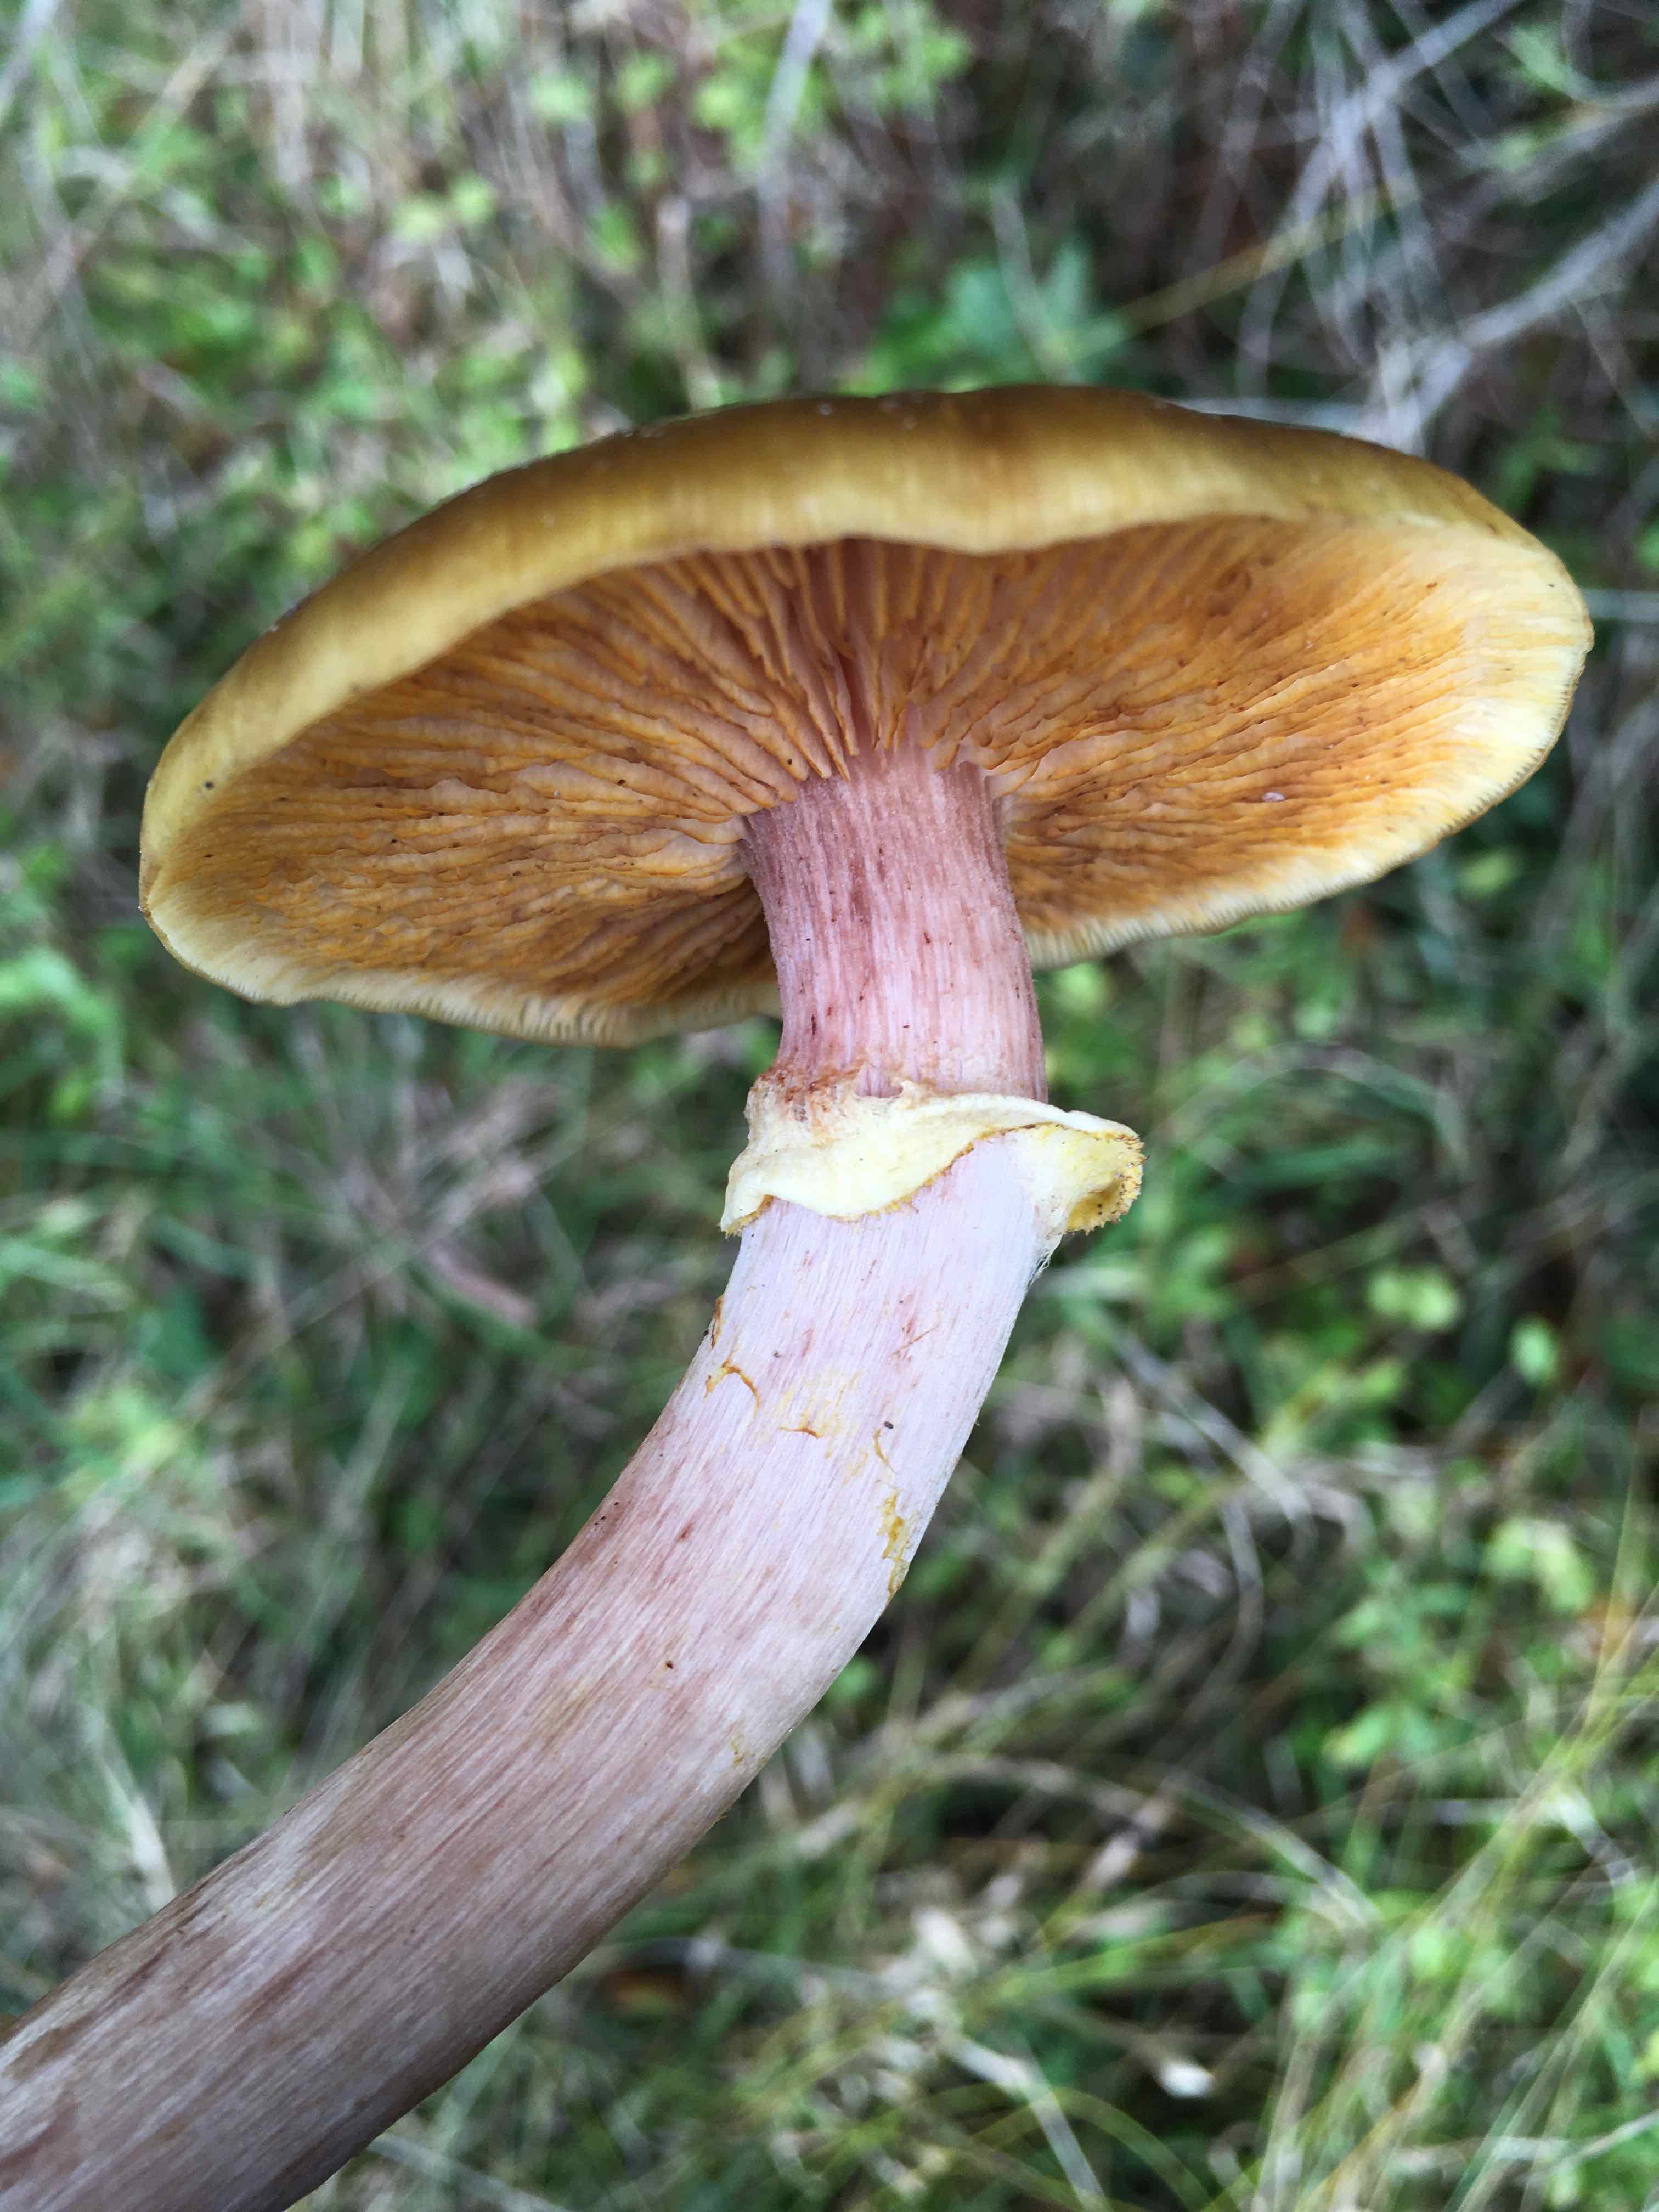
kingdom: Fungi
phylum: Basidiomycota
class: Agaricomycetes
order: Agaricales
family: Physalacriaceae
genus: Armillaria
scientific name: Armillaria mellea
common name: ægte honningsvamp
